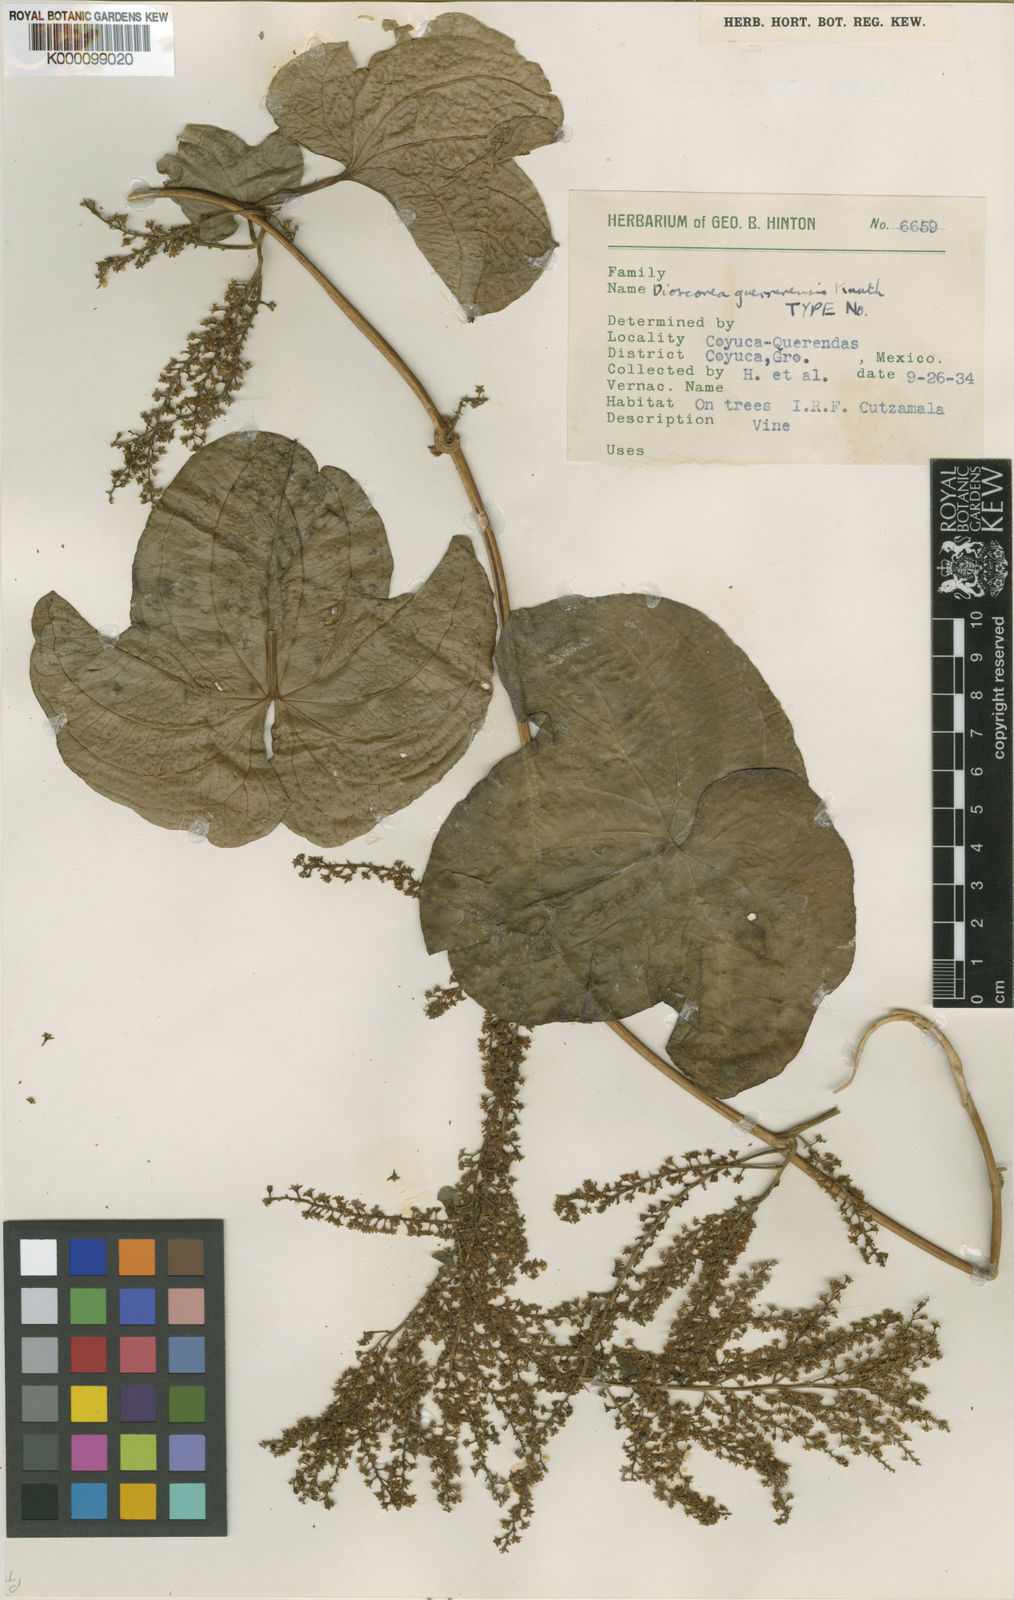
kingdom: Plantae
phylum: Tracheophyta
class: Liliopsida
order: Dioscoreales
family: Dioscoreaceae
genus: Dioscorea
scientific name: Dioscorea guerrerensis
